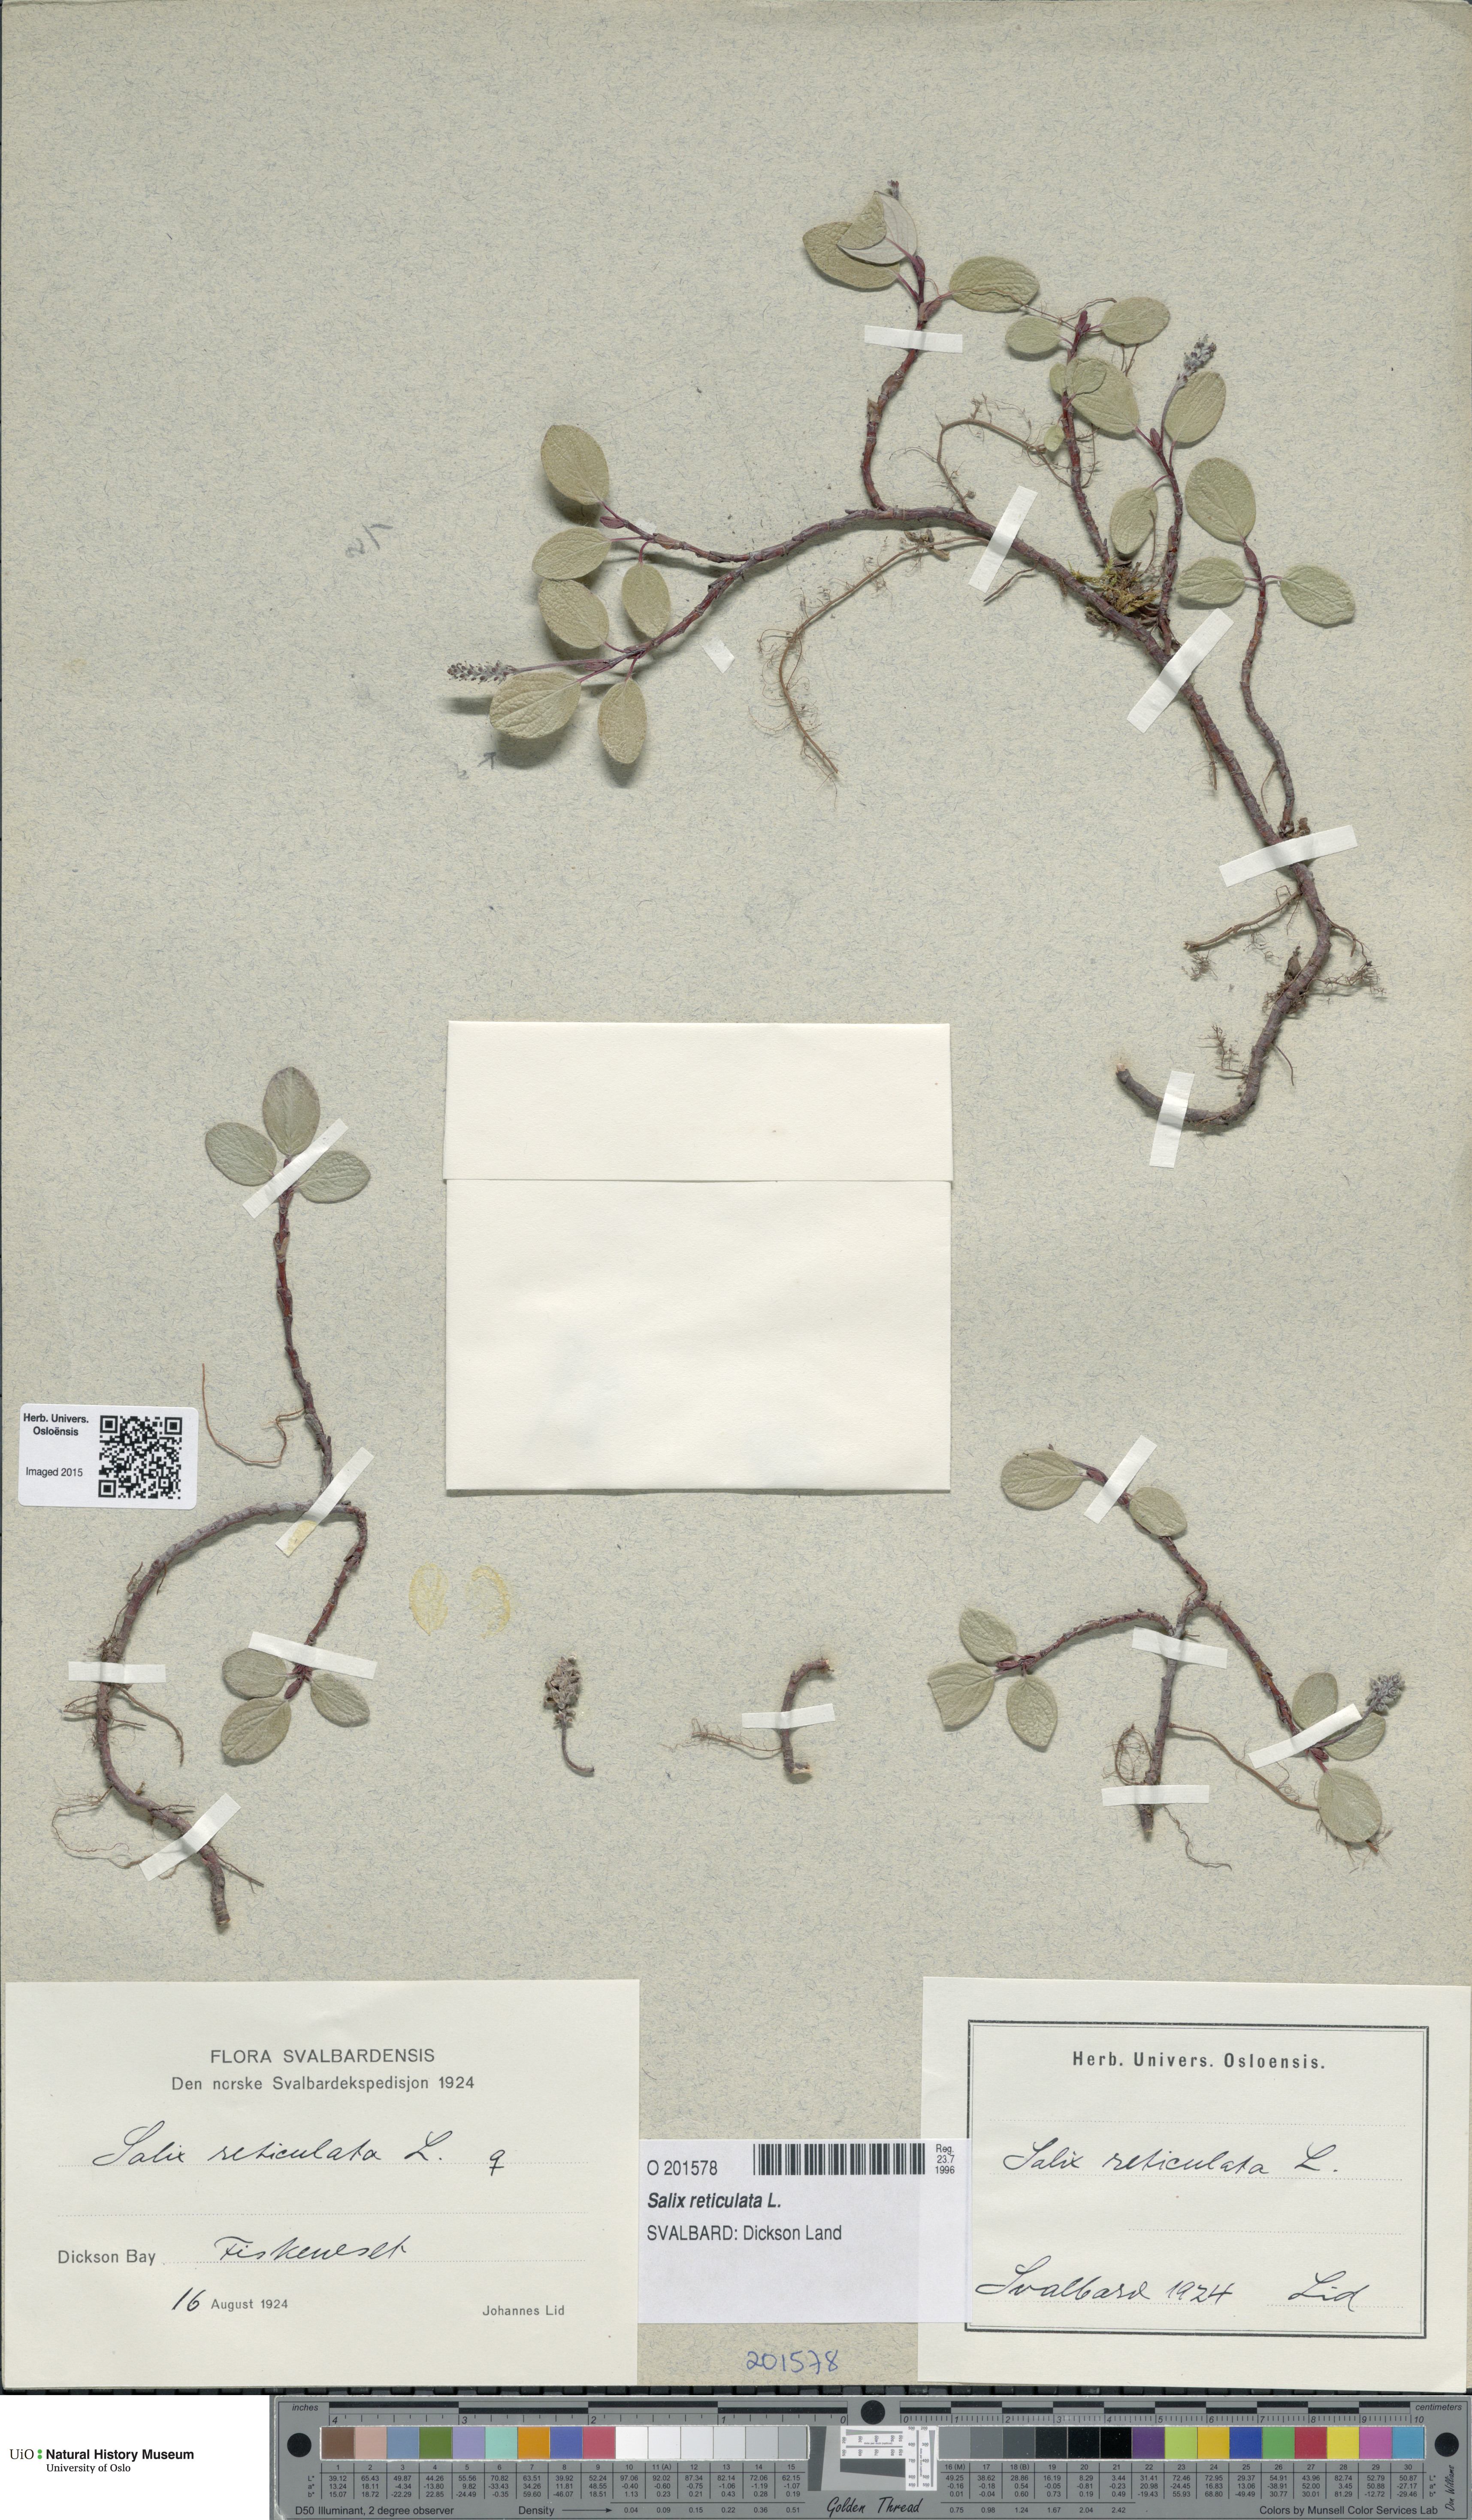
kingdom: Plantae
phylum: Tracheophyta
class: Magnoliopsida
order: Malpighiales
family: Salicaceae
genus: Salix
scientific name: Salix reticulata
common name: Net-leaved willow
